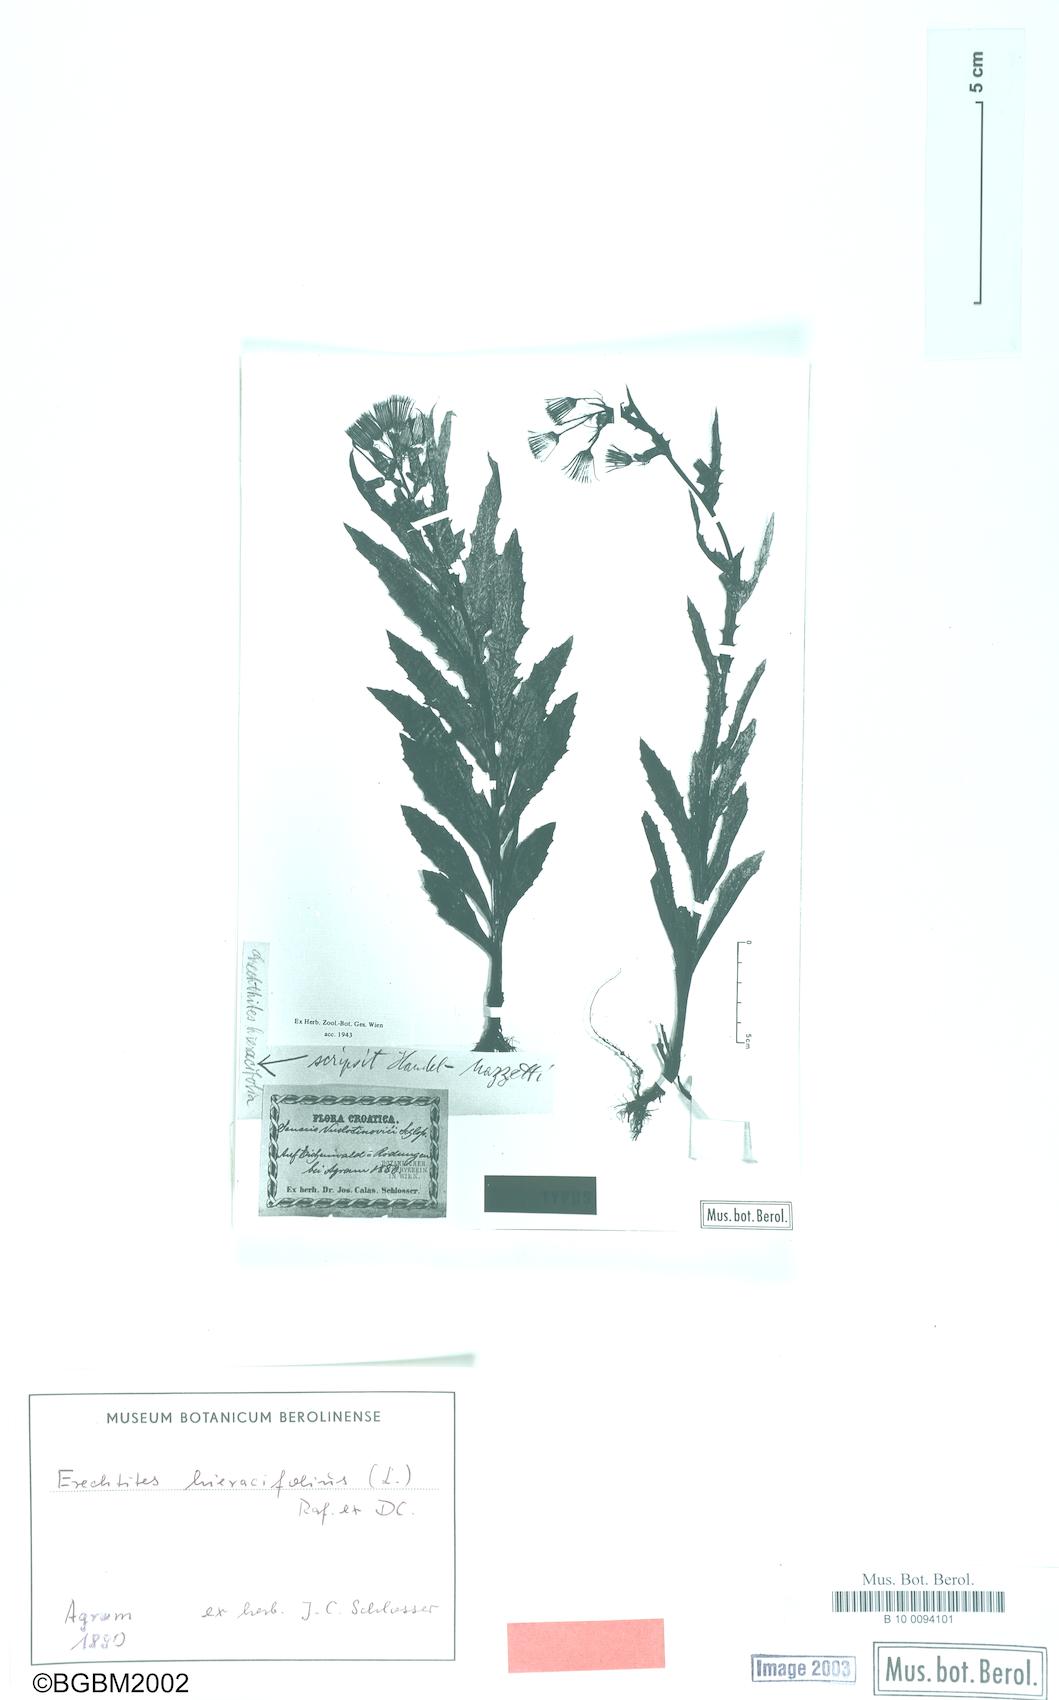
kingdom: Plantae
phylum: Tracheophyta
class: Magnoliopsida
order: Asterales
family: Asteraceae
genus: Erechtites
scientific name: Erechtites hieraciifolius
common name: American burnweed
